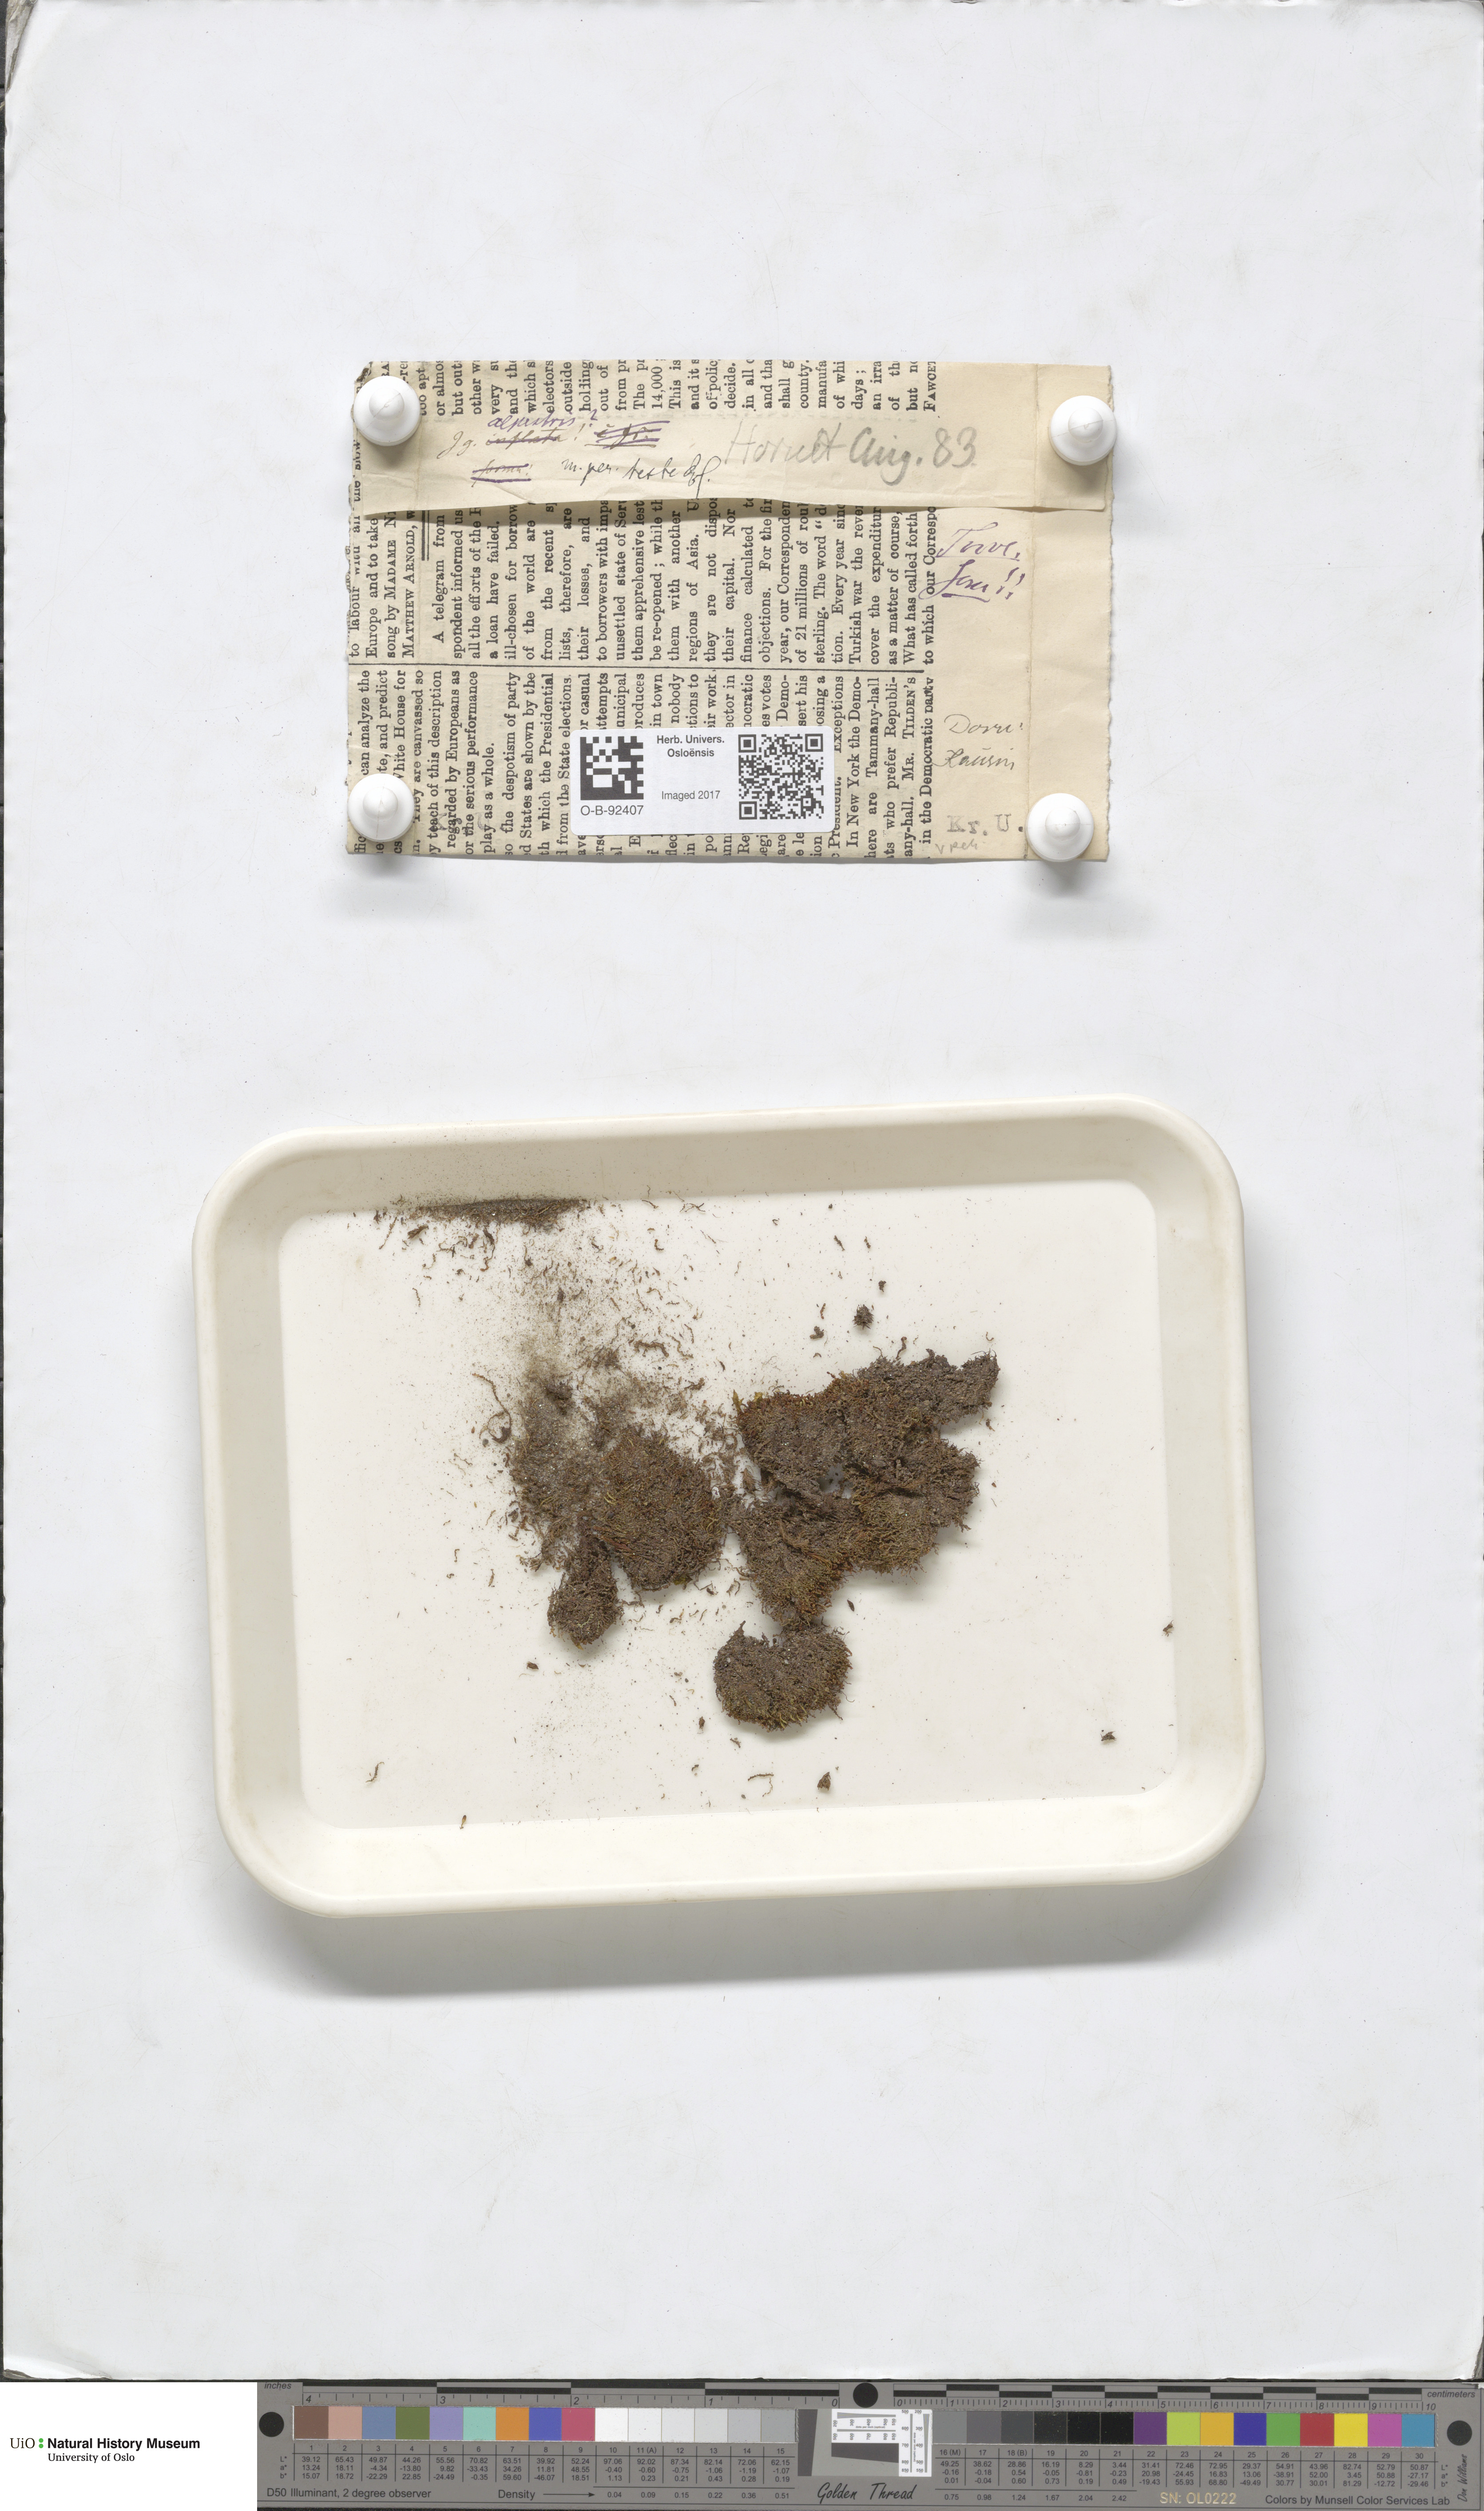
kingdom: Plantae
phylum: Marchantiophyta
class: Jungermanniopsida
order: Jungermanniales
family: Anastrophyllaceae
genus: Barbilophozia
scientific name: Barbilophozia sudetica
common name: Hill notchwort
